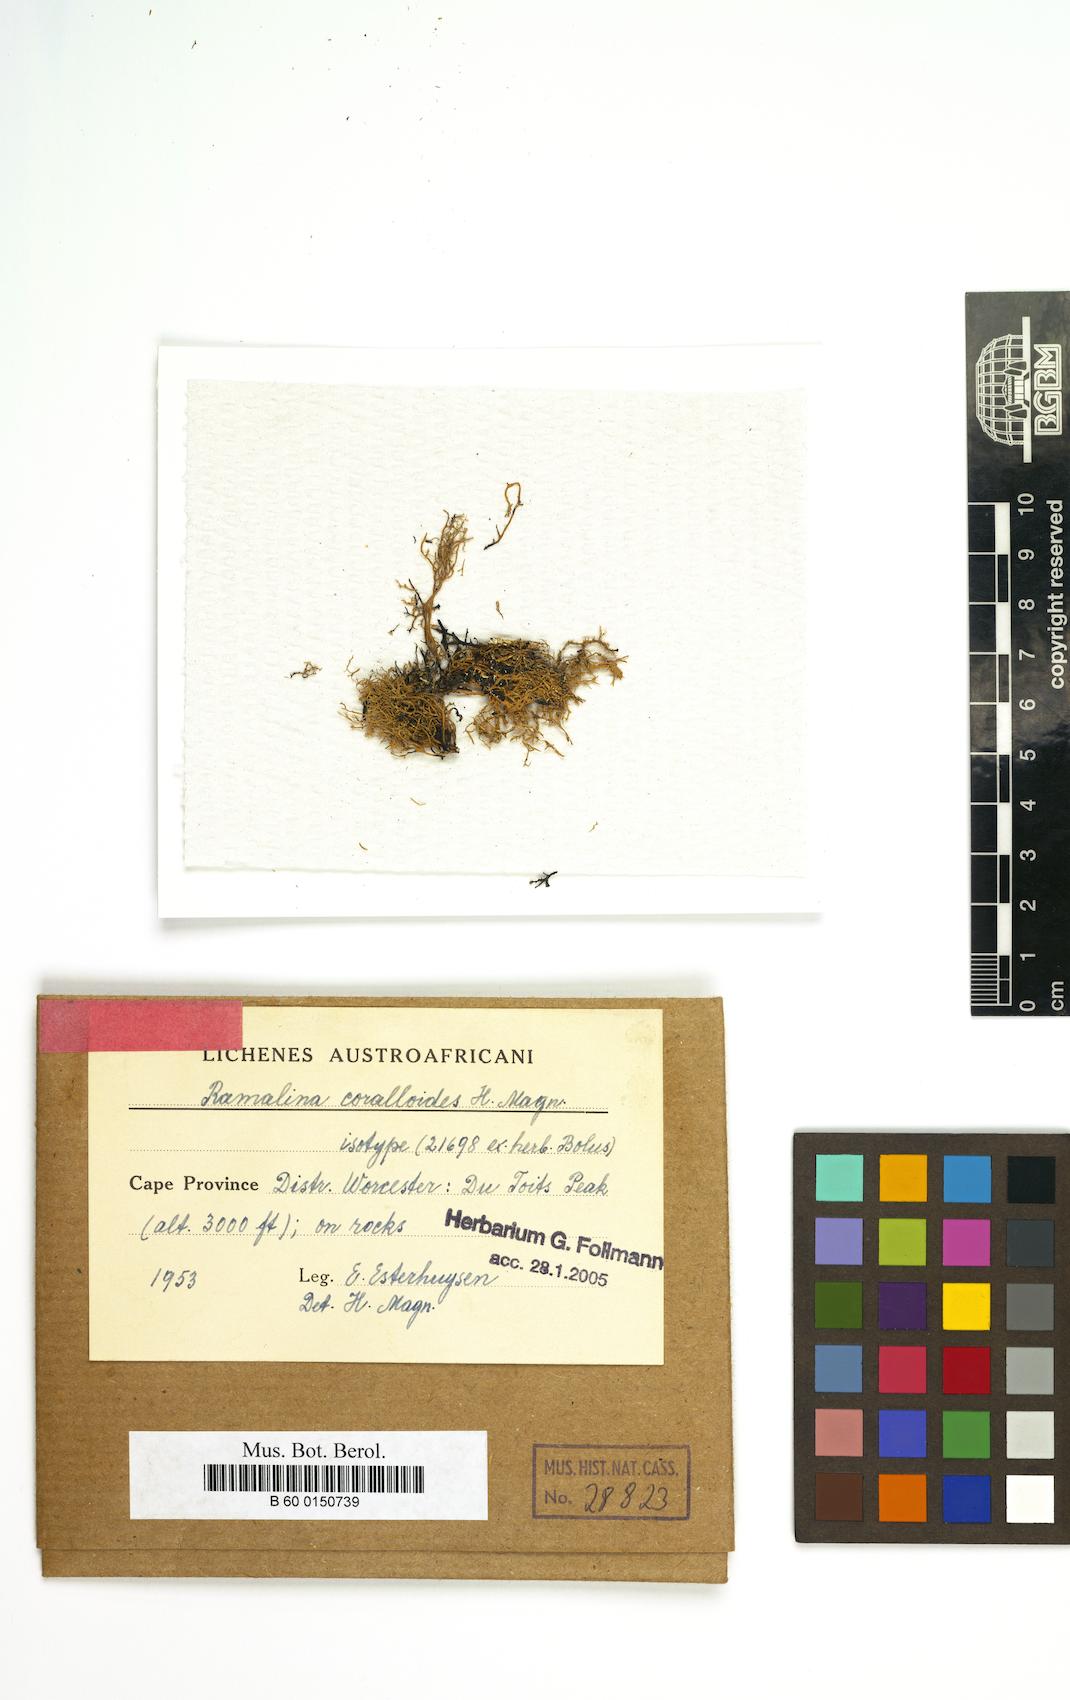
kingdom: Fungi
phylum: Ascomycota
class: Lecanoromycetes
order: Lecanorales
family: Ramalinaceae
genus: Ramalina
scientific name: Ramalina
